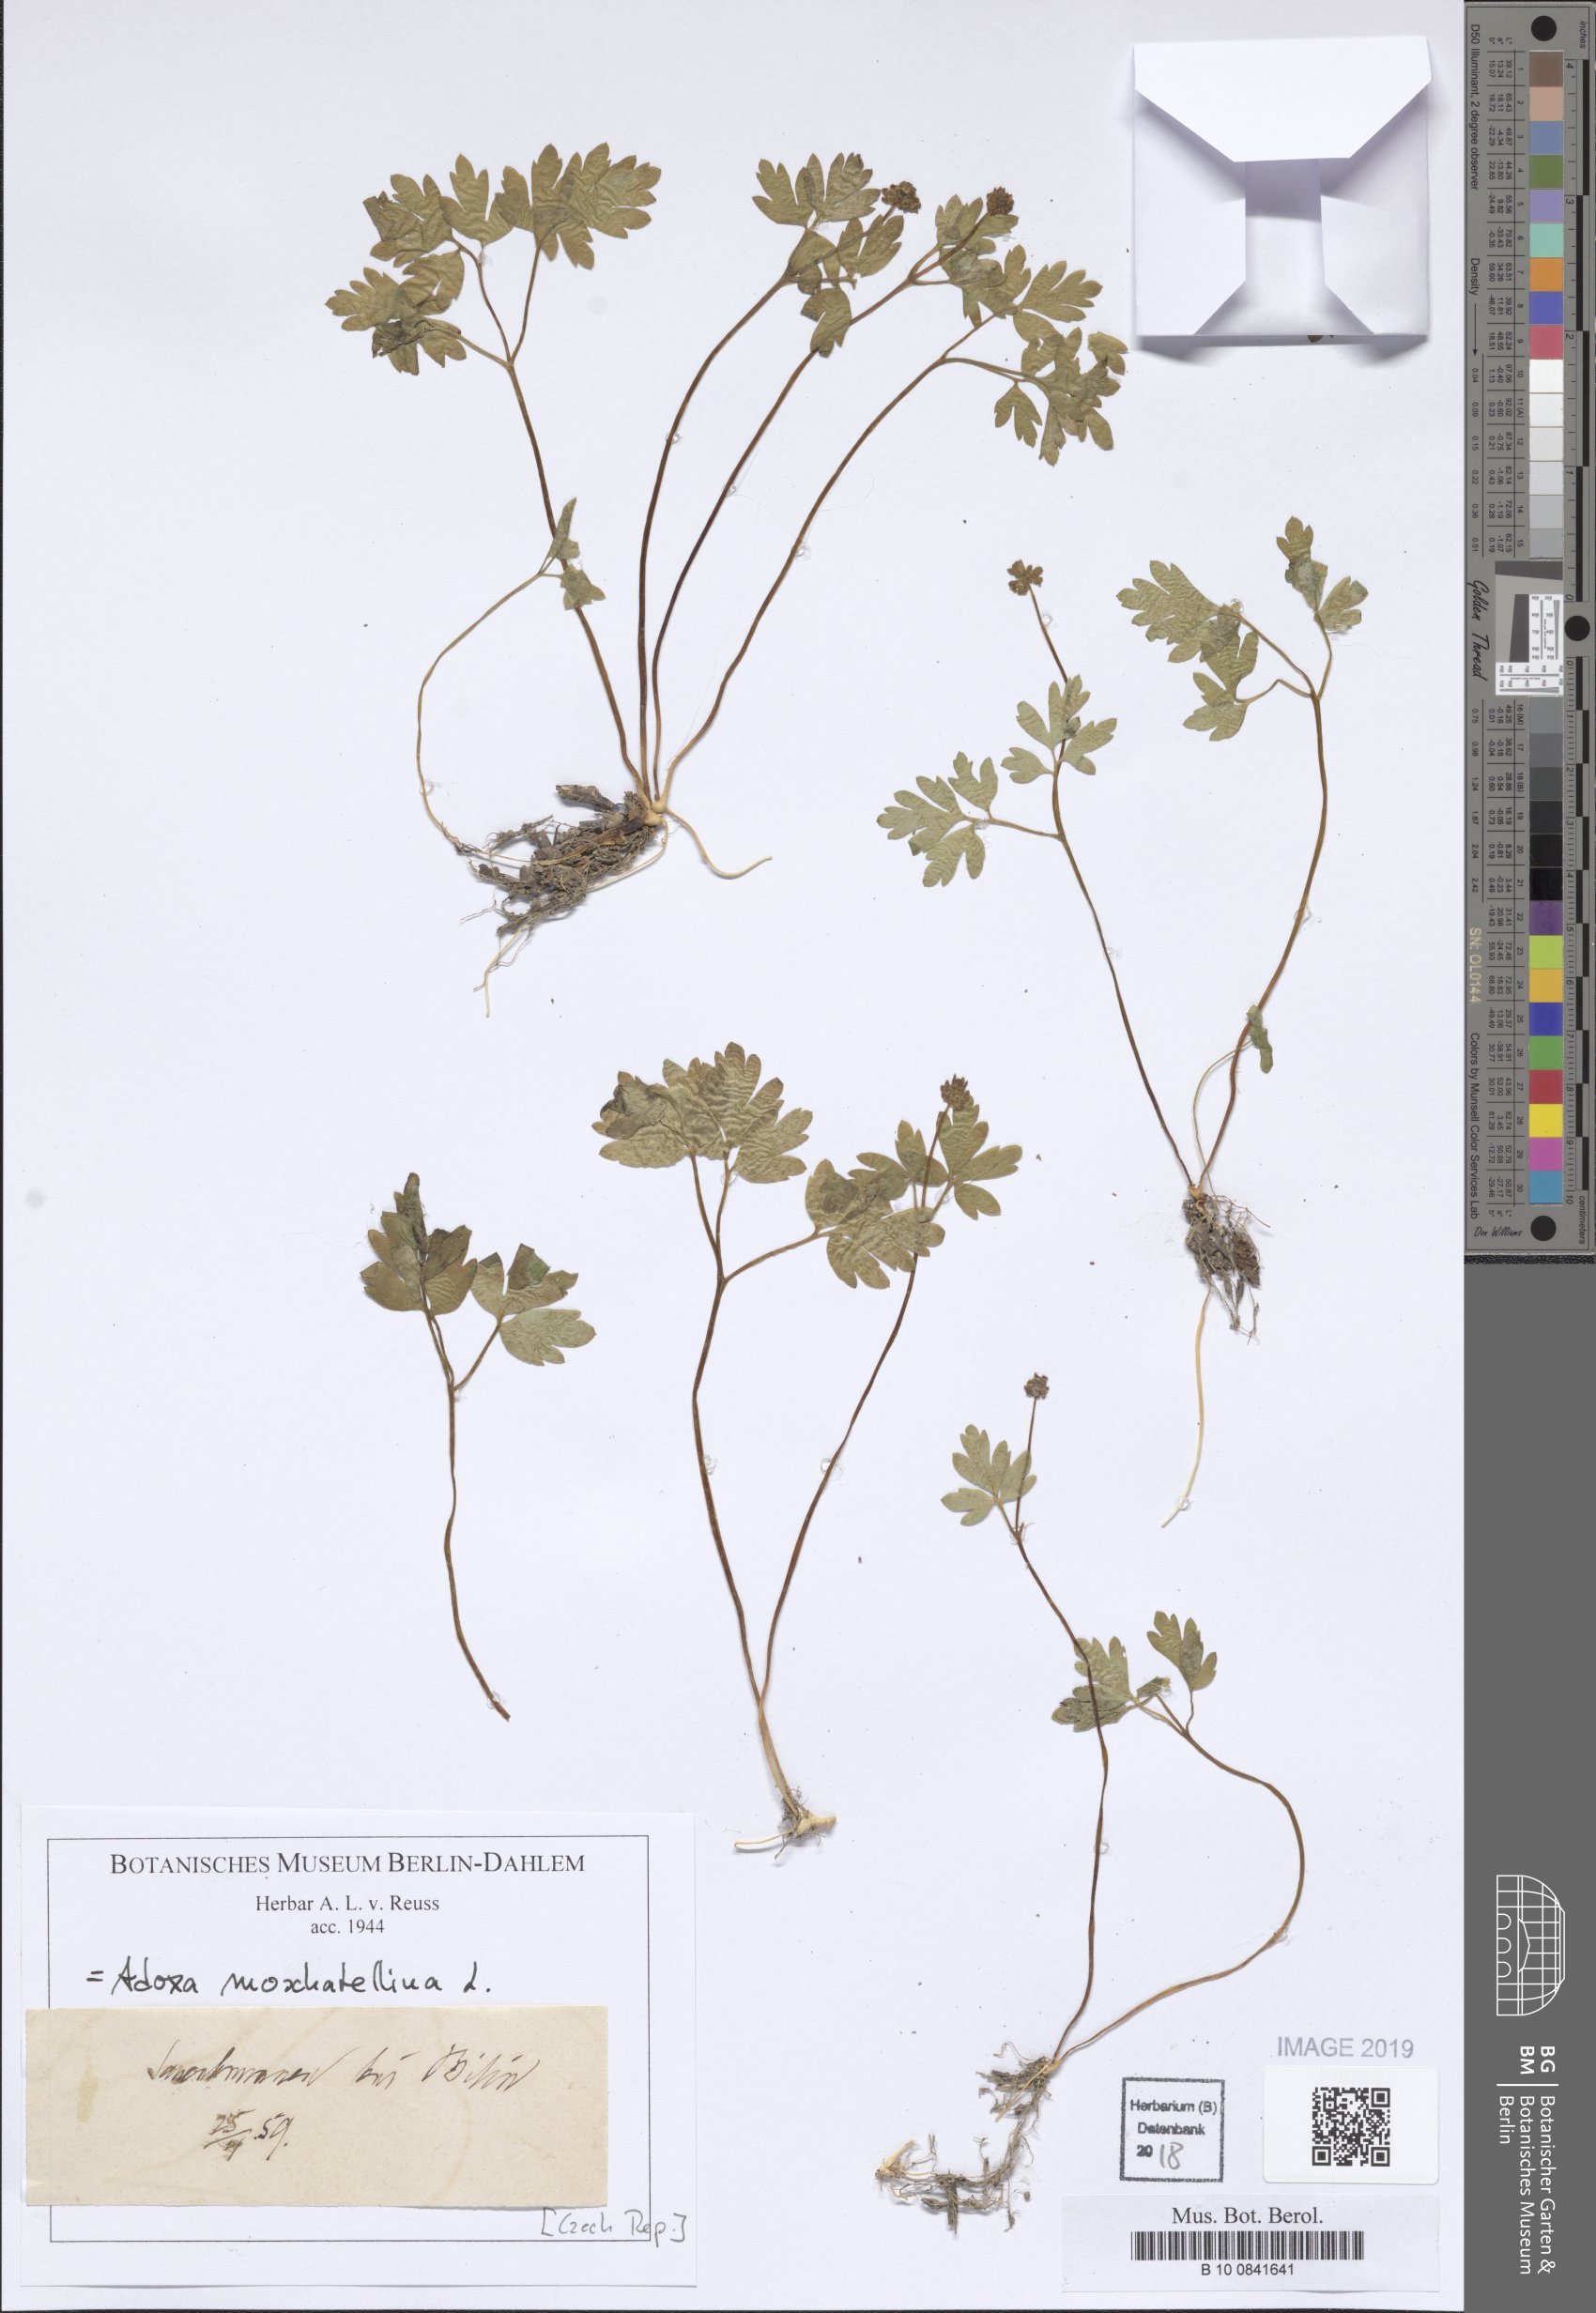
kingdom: Plantae
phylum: Tracheophyta
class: Magnoliopsida
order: Dipsacales
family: Viburnaceae
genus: Adoxa
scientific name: Adoxa moschatellina
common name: Moschatel
